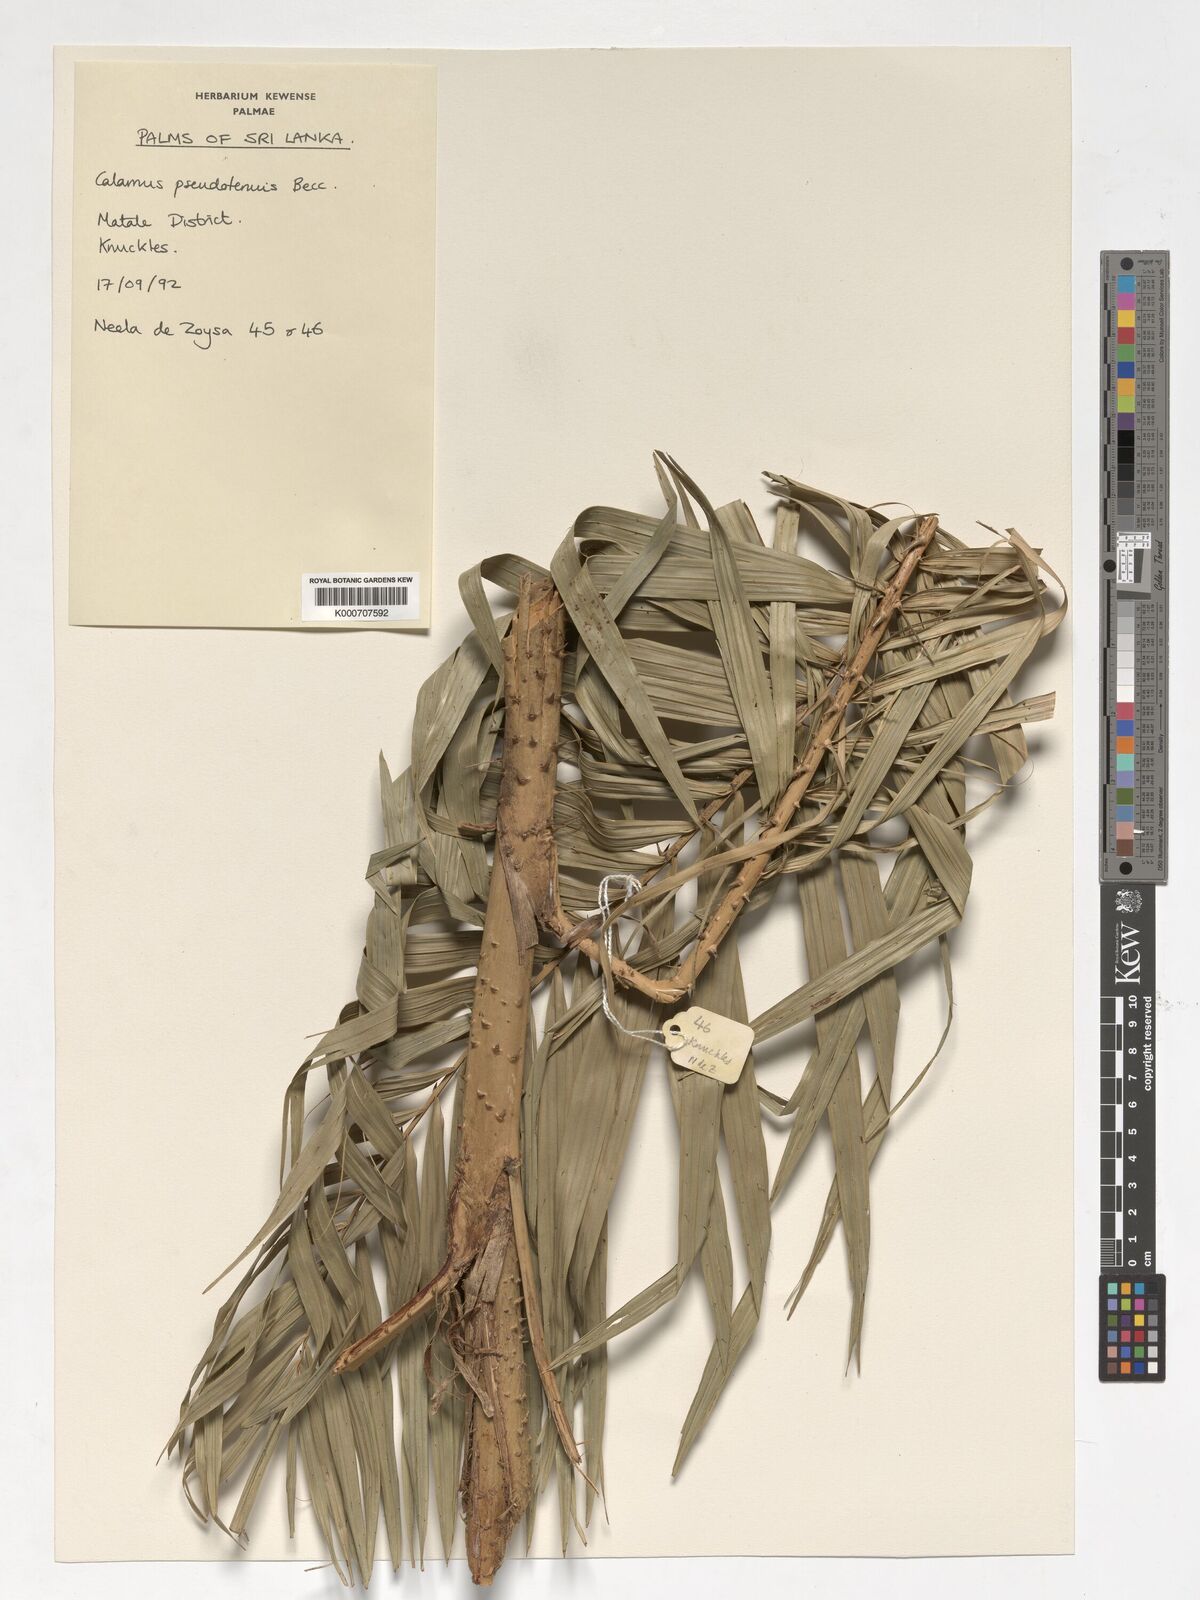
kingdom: Plantae
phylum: Tracheophyta
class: Liliopsida
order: Arecales
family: Arecaceae
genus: Calamus
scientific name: Calamus pseudotenuis
